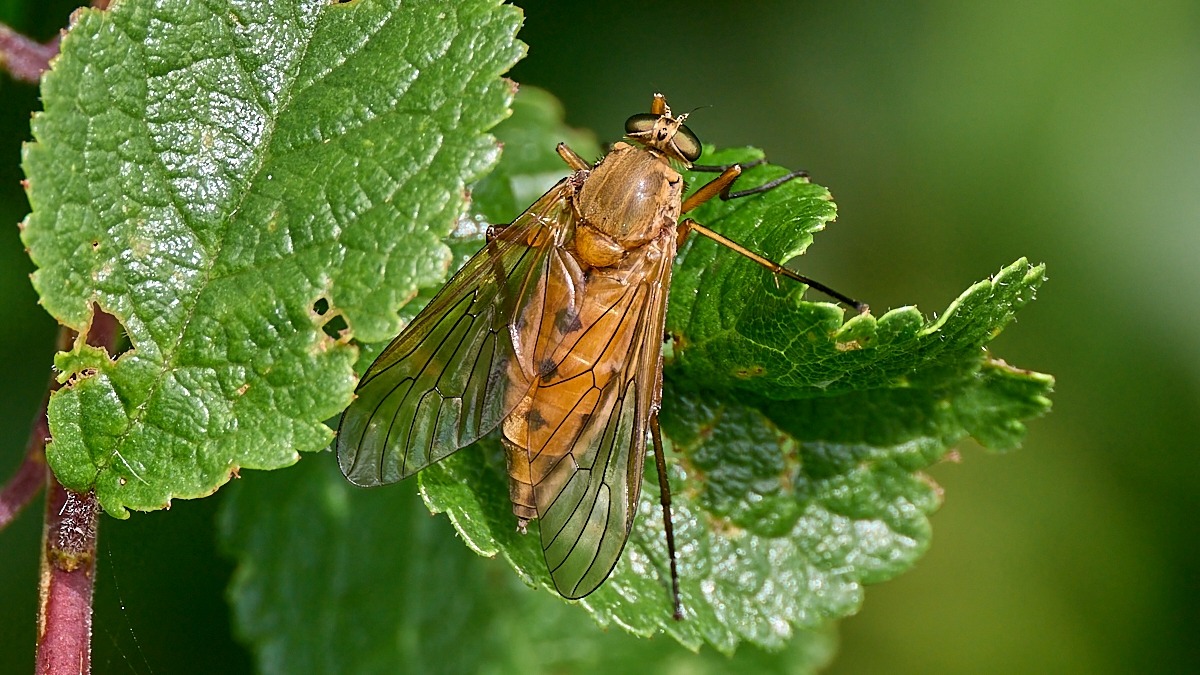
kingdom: Animalia
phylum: Arthropoda
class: Insecta
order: Diptera
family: Rhagionidae
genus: Rhagio
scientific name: Rhagio tringaria
